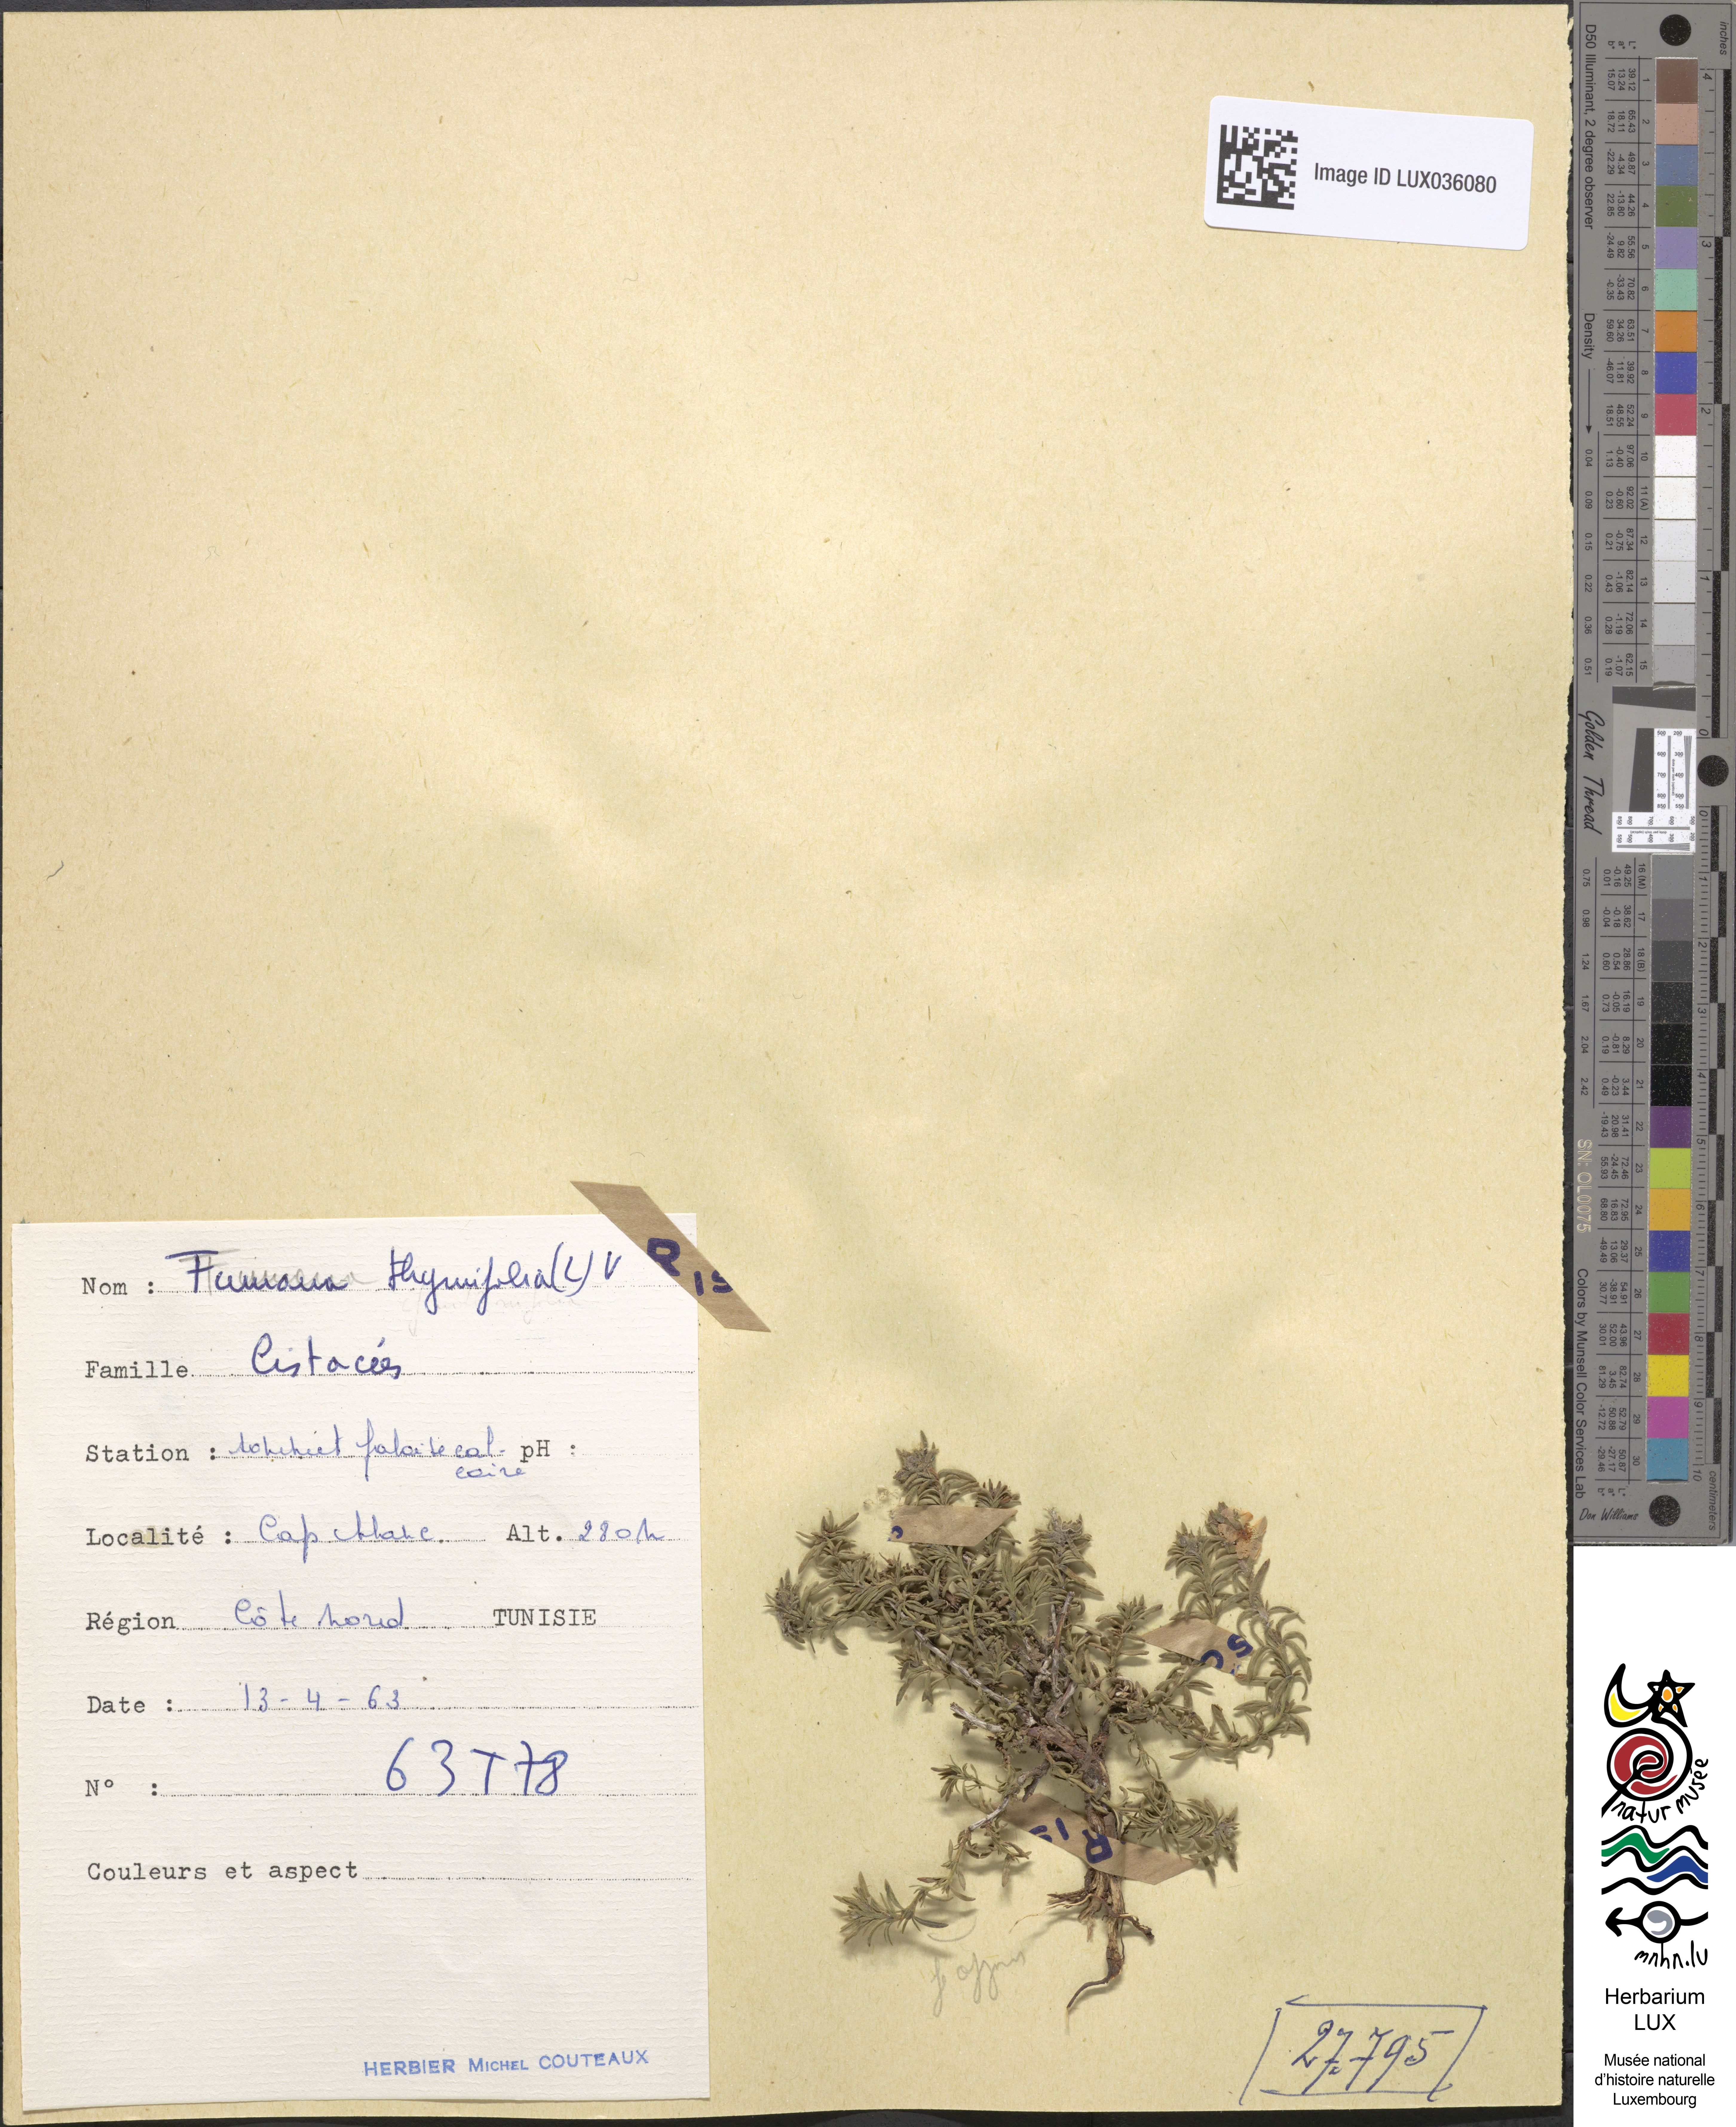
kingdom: Plantae
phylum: Tracheophyta
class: Magnoliopsida
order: Malvales
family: Cistaceae
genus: Fumana
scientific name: Fumana thymifolia
